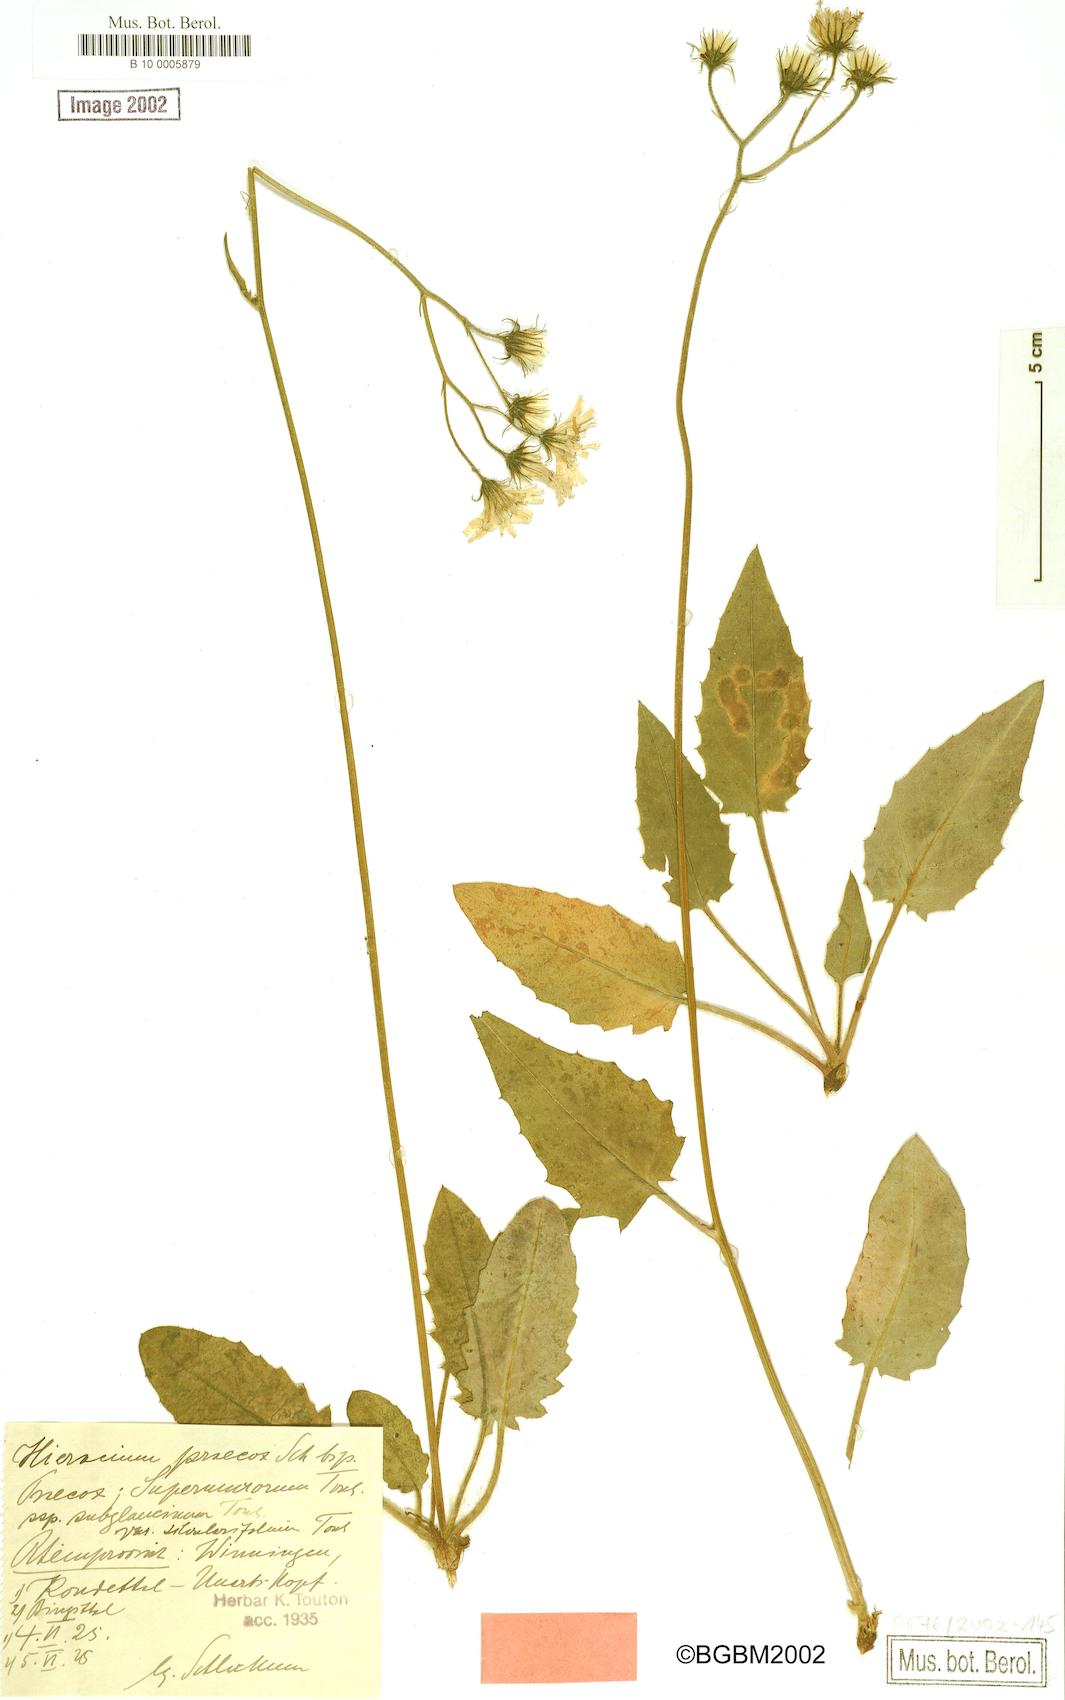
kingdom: Plantae
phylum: Tracheophyta
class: Magnoliopsida
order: Asterales
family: Asteraceae
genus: Hieracium
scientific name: Hieracium praecox
